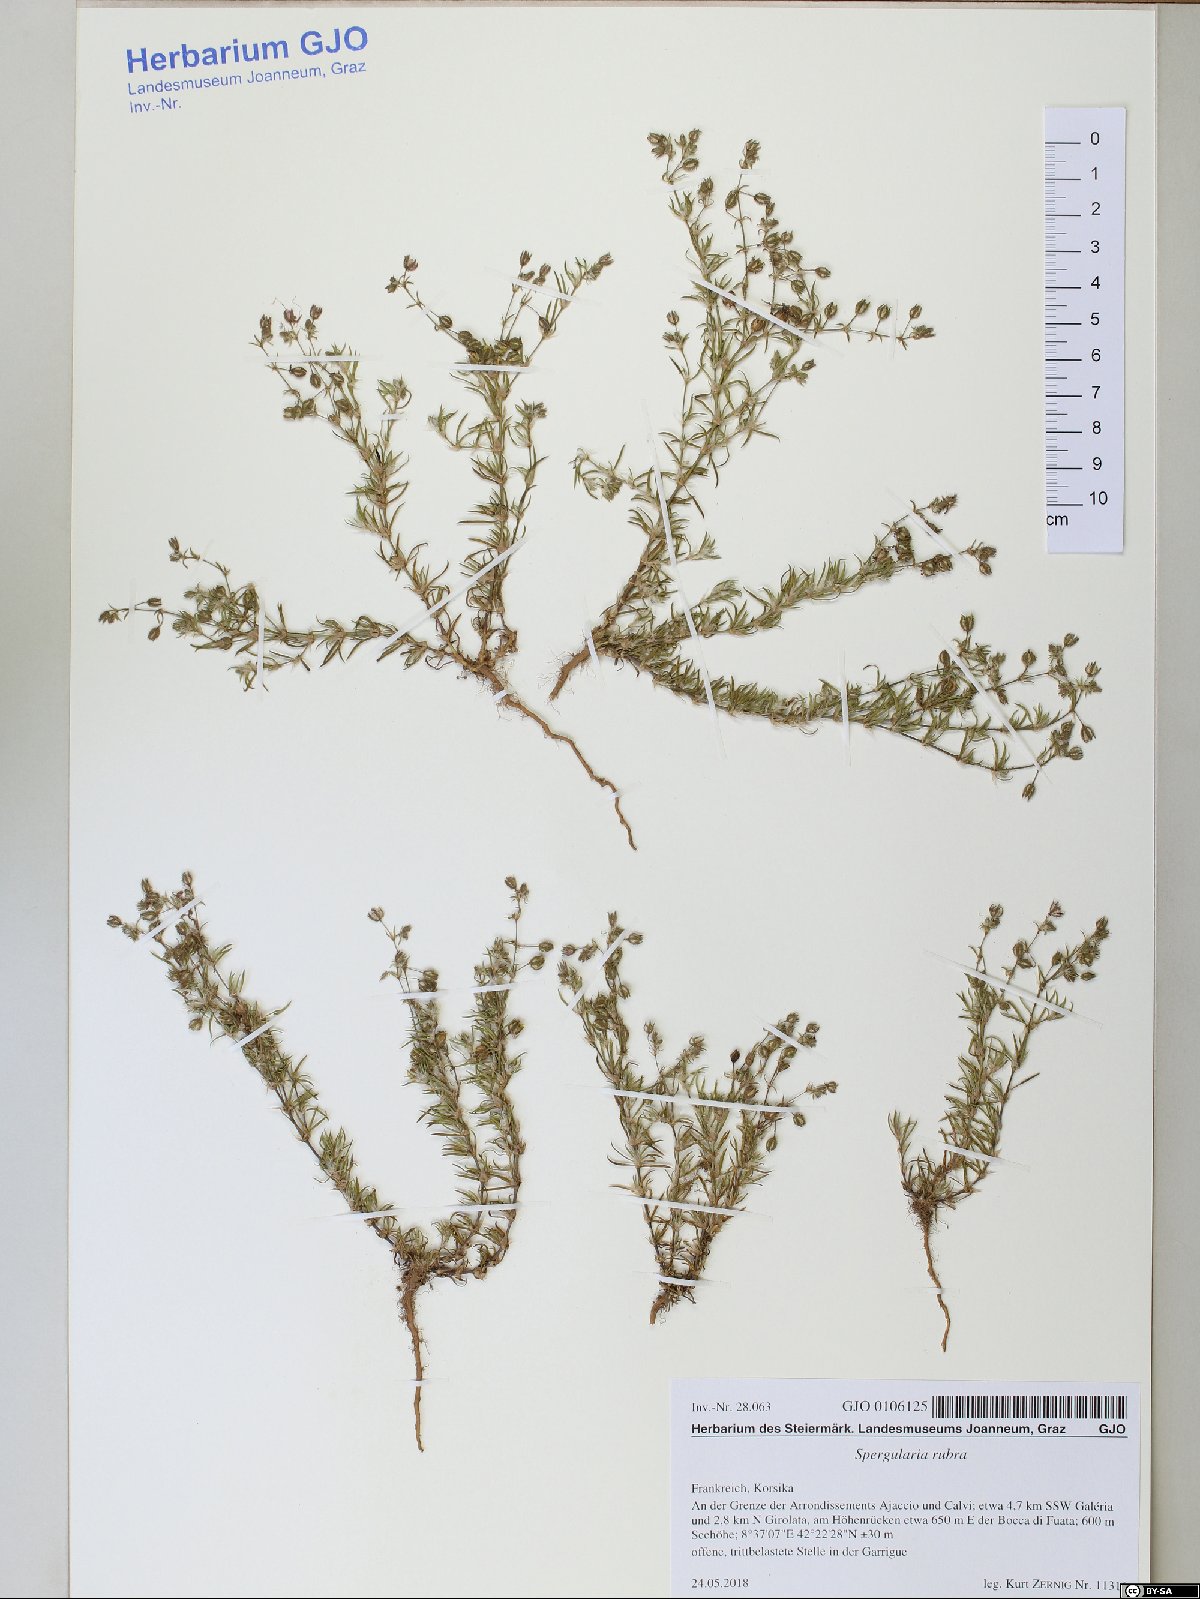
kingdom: Plantae
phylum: Tracheophyta
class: Magnoliopsida
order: Caryophyllales
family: Caryophyllaceae
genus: Spergularia
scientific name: Spergularia rubra
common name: Red sand-spurrey
